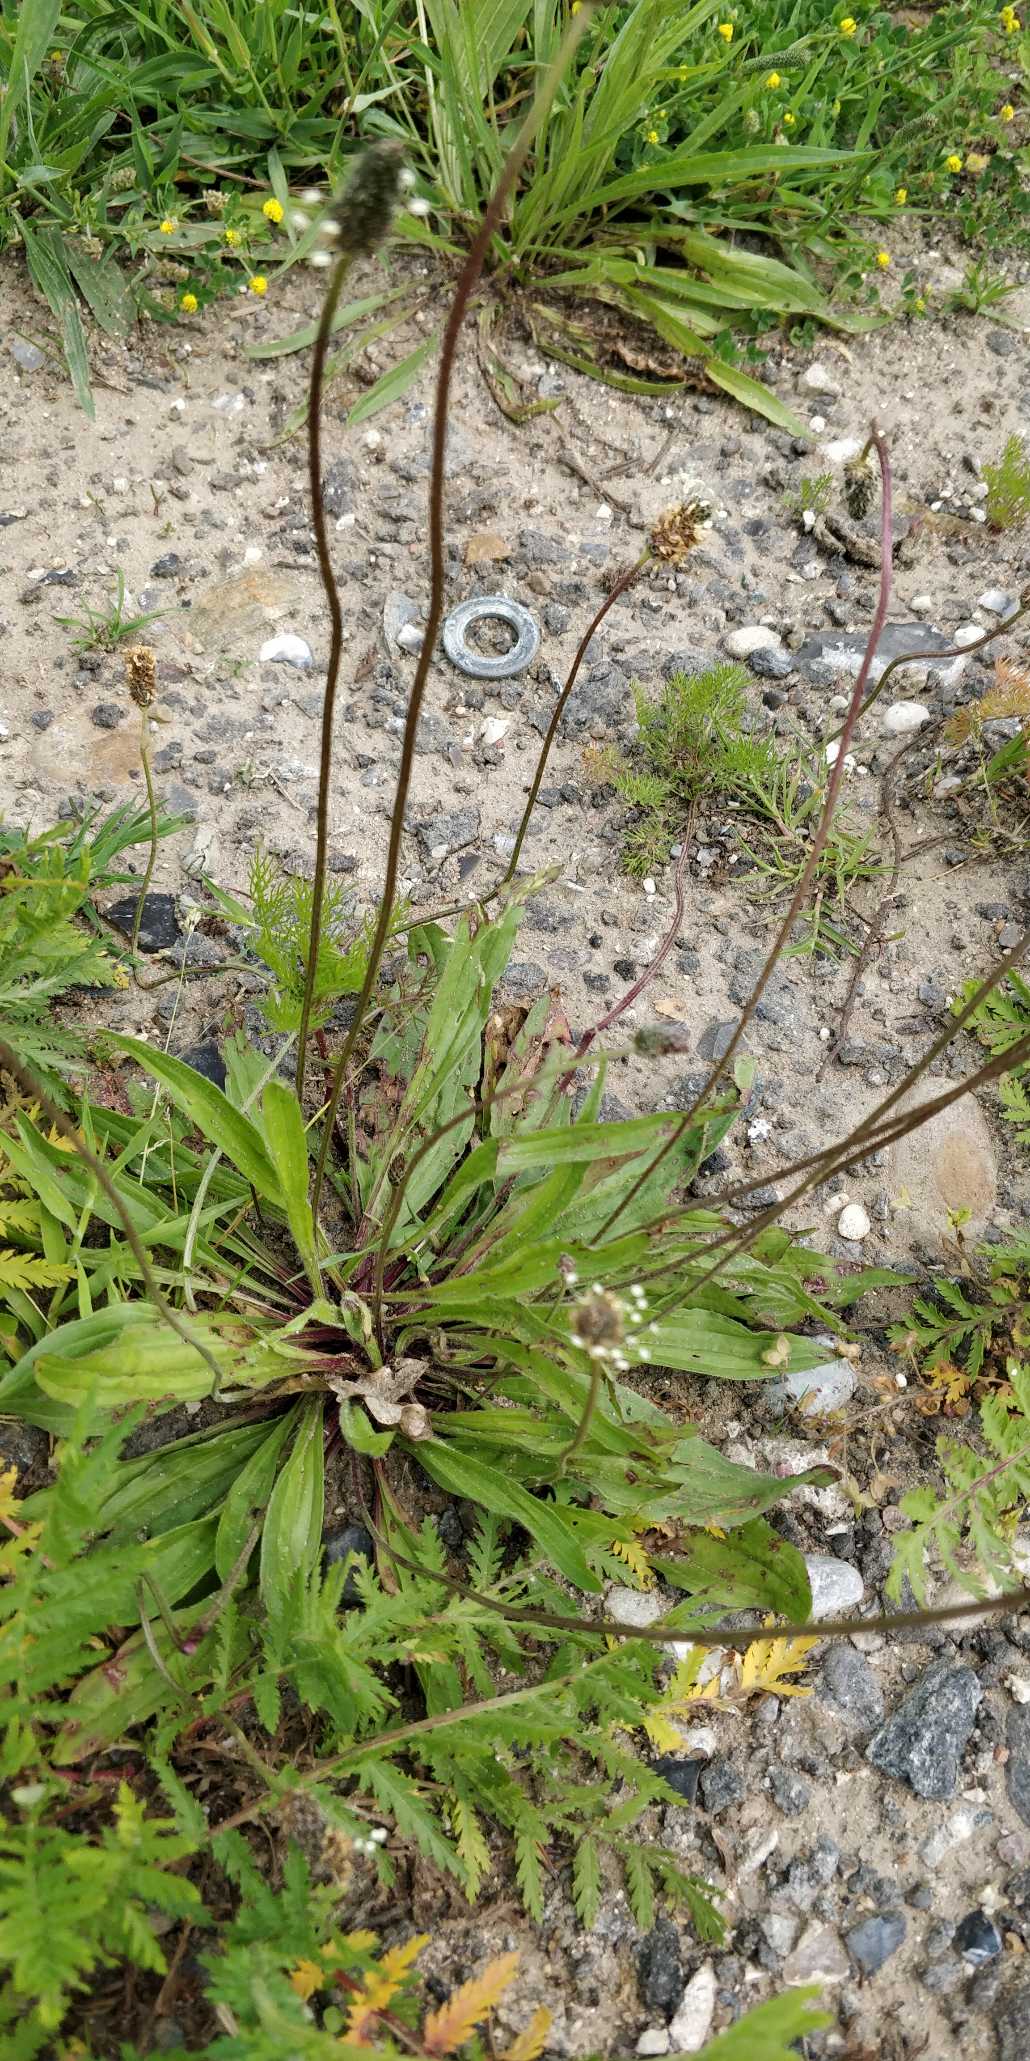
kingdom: Plantae
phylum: Tracheophyta
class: Magnoliopsida
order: Lamiales
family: Plantaginaceae
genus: Plantago
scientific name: Plantago lanceolata
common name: Lancet-vejbred
